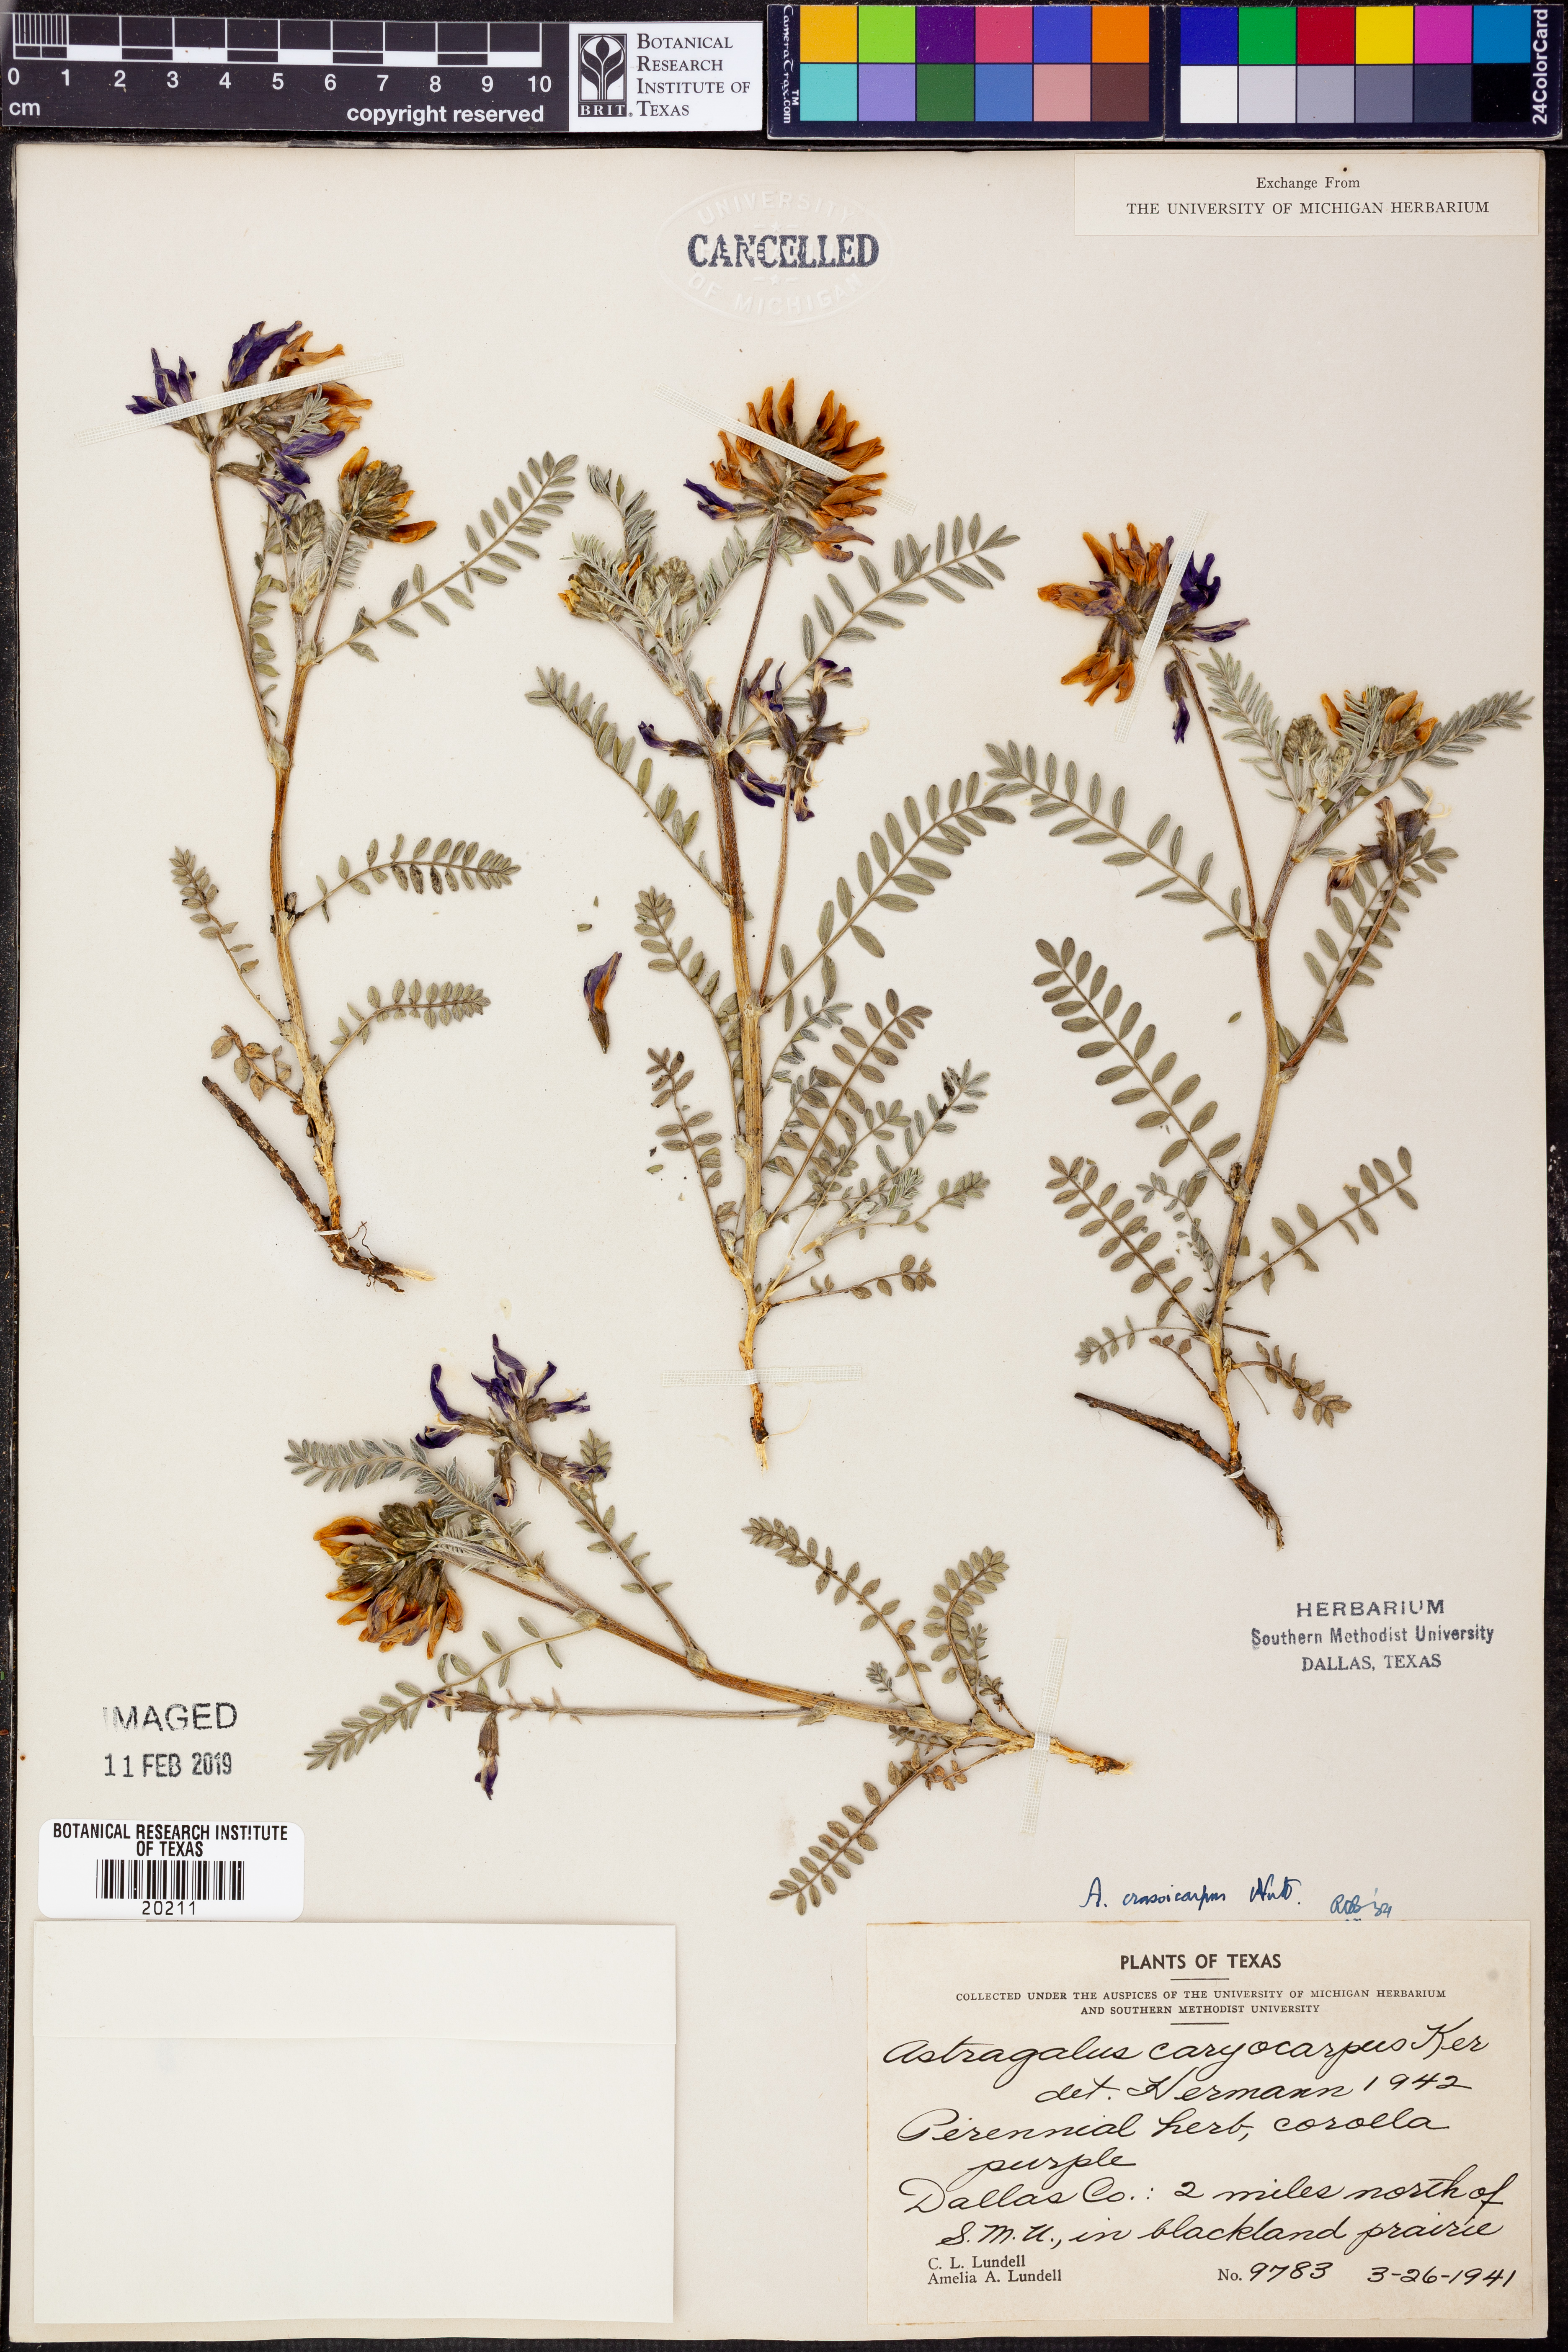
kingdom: Plantae
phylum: Tracheophyta
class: Magnoliopsida
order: Fabales
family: Fabaceae
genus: Astragalus
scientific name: Astragalus crassicarpus
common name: Ground-plum milk-vetch
